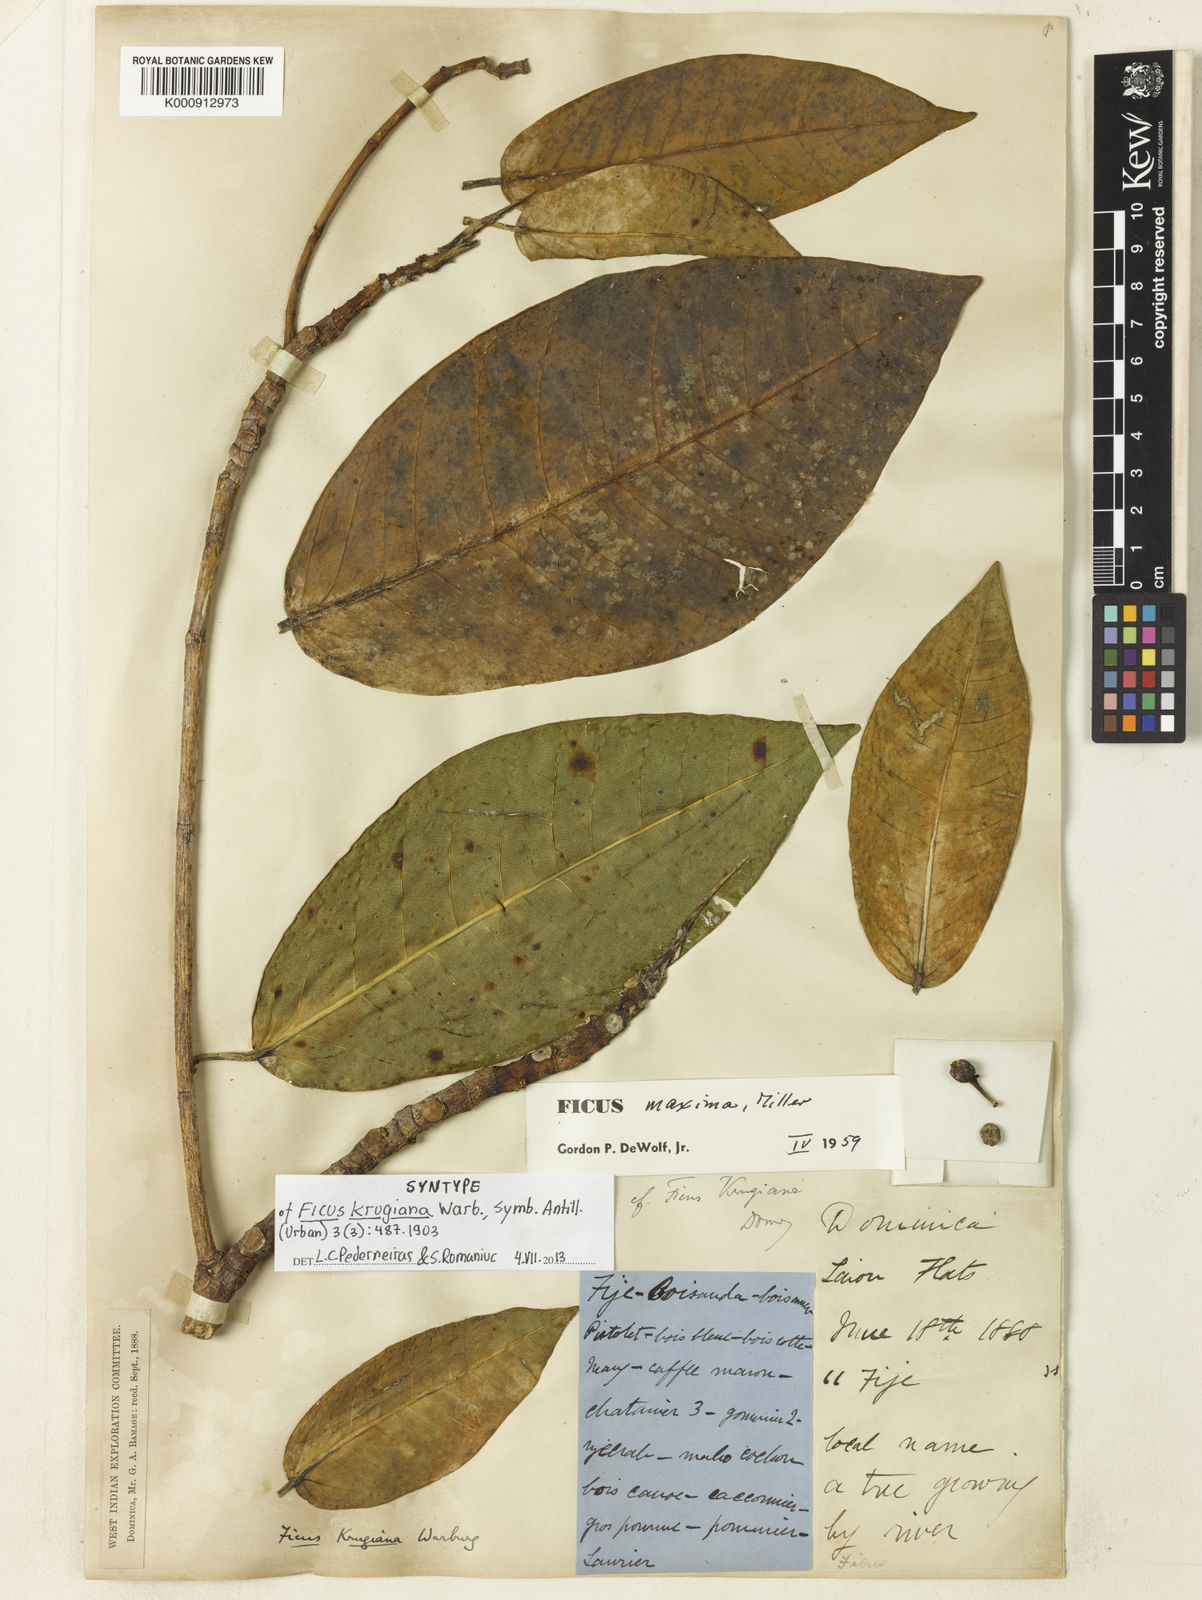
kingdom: Plantae
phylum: Tracheophyta
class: Magnoliopsida
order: Rosales
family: Moraceae
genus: Ficus
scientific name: Ficus maxima
